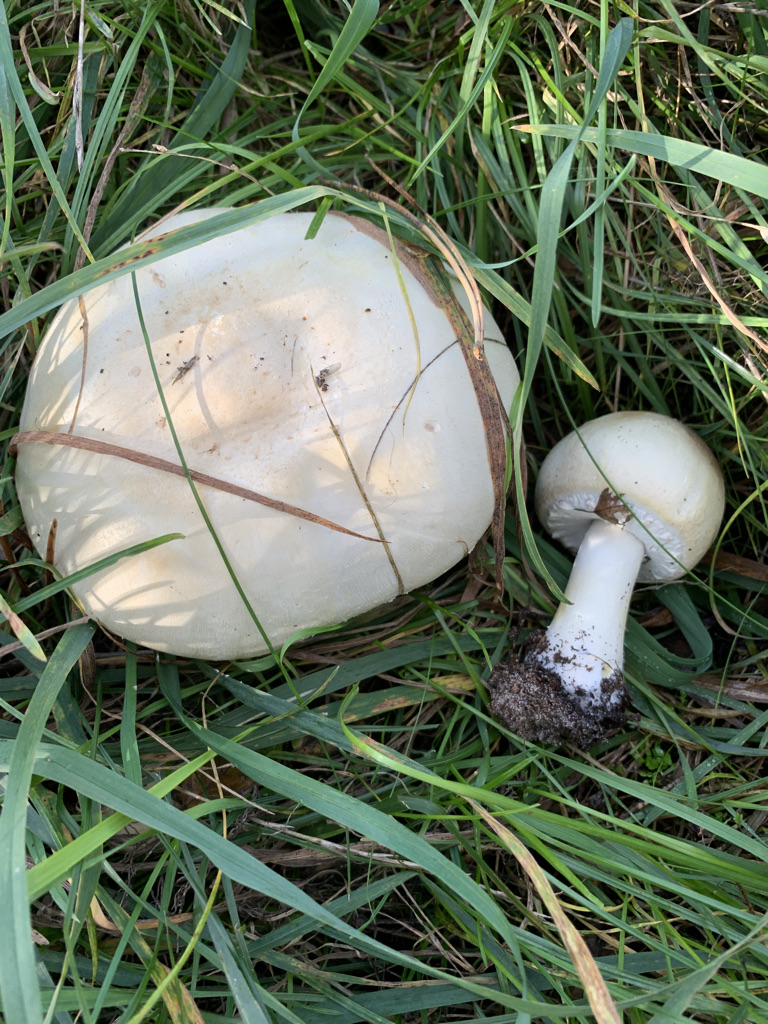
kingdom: Fungi
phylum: Basidiomycota
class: Agaricomycetes
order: Agaricales
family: Agaricaceae
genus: Agaricus
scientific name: Agaricus arvensis
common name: ager-champignon
